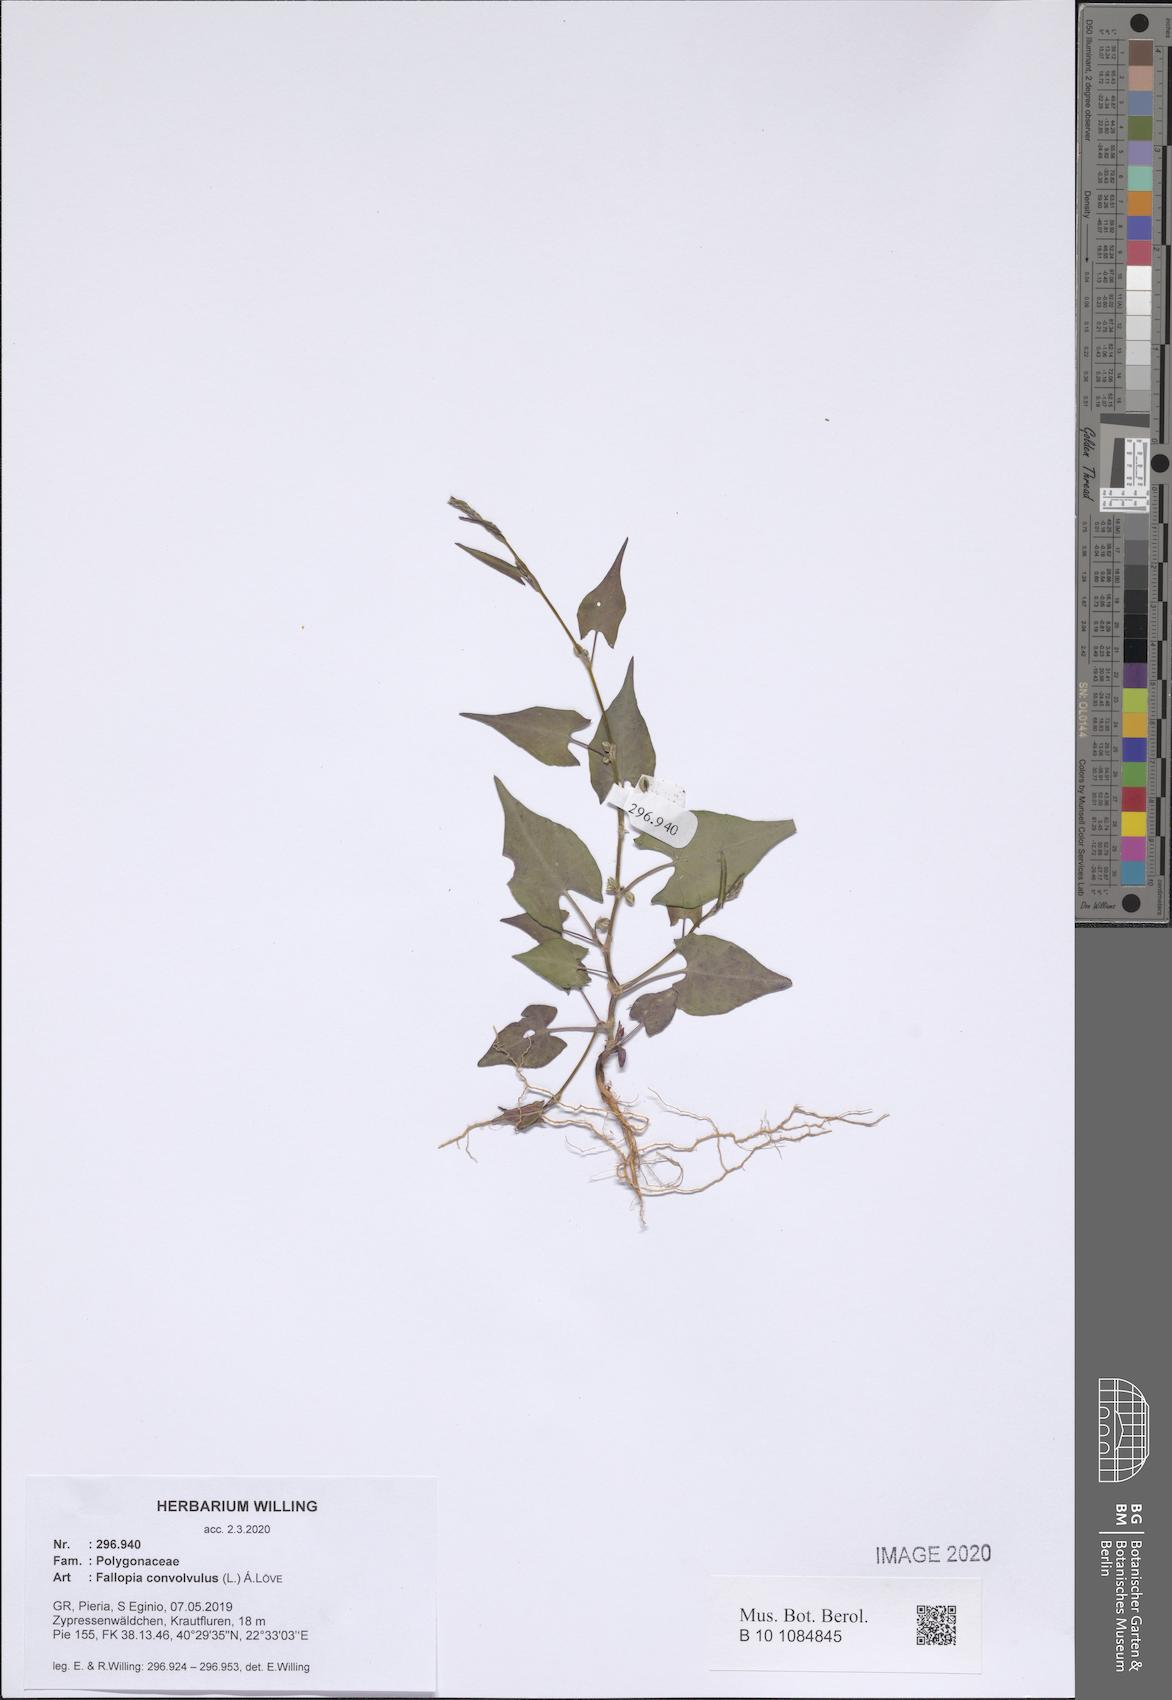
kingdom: Plantae
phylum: Tracheophyta
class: Magnoliopsida
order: Caryophyllales
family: Polygonaceae
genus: Fallopia
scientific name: Fallopia convolvulus
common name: Black bindweed
